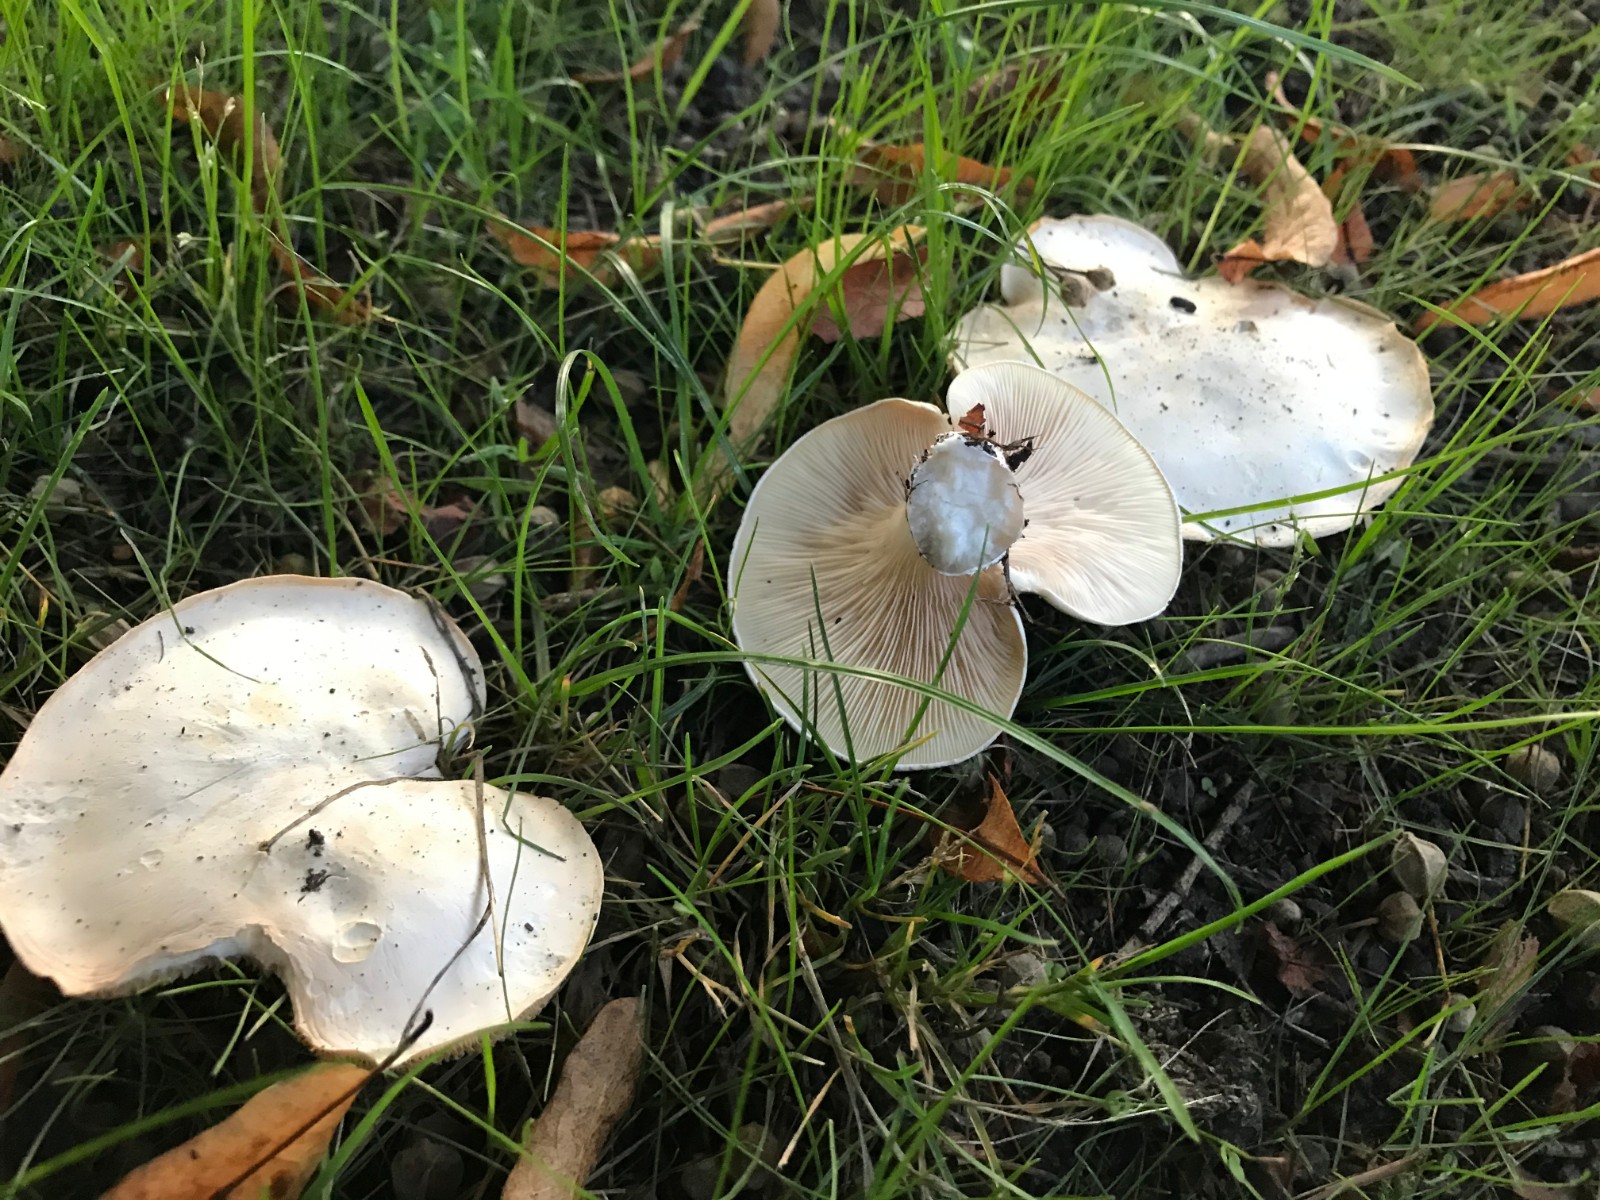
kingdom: Fungi
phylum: Basidiomycota
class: Agaricomycetes
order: Agaricales
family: Entolomataceae
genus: Clitopilus
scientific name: Clitopilus prunulus
